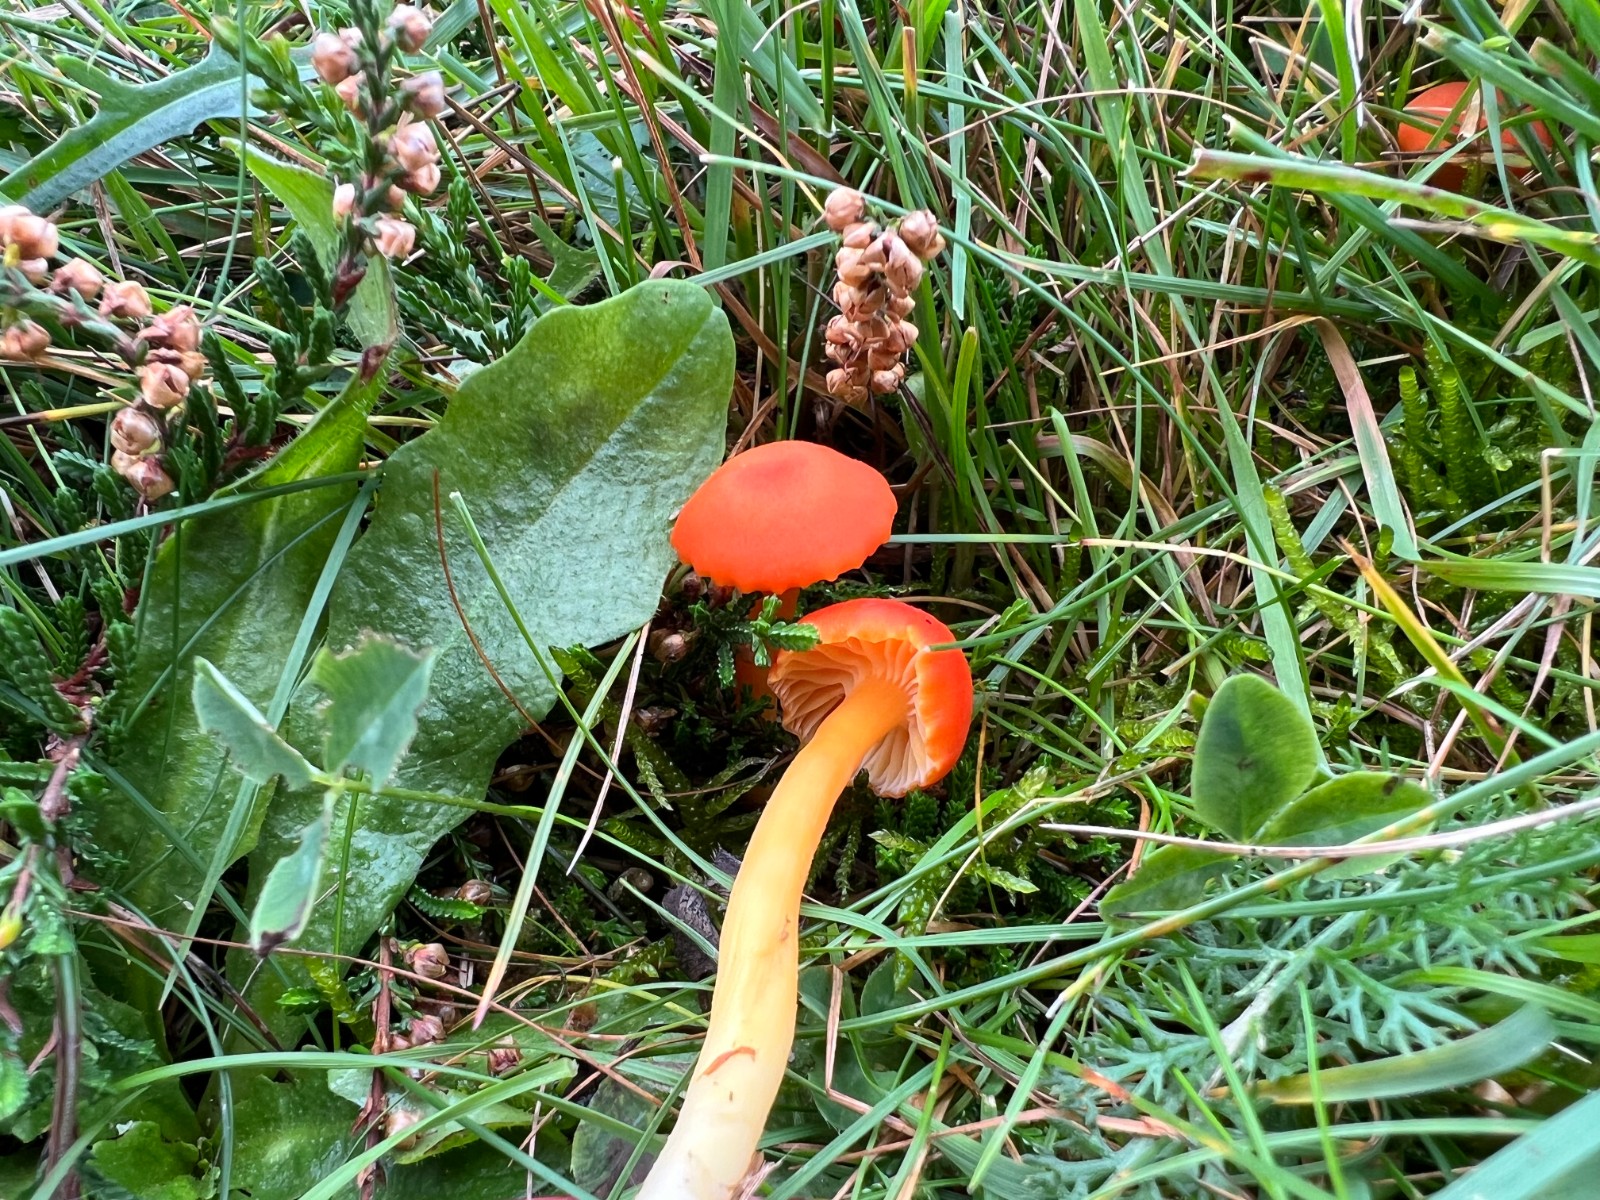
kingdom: Fungi
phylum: Basidiomycota
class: Agaricomycetes
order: Agaricales
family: Hygrophoraceae
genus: Hygrocybe
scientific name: Hygrocybe reidii
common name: honning-vokshat
